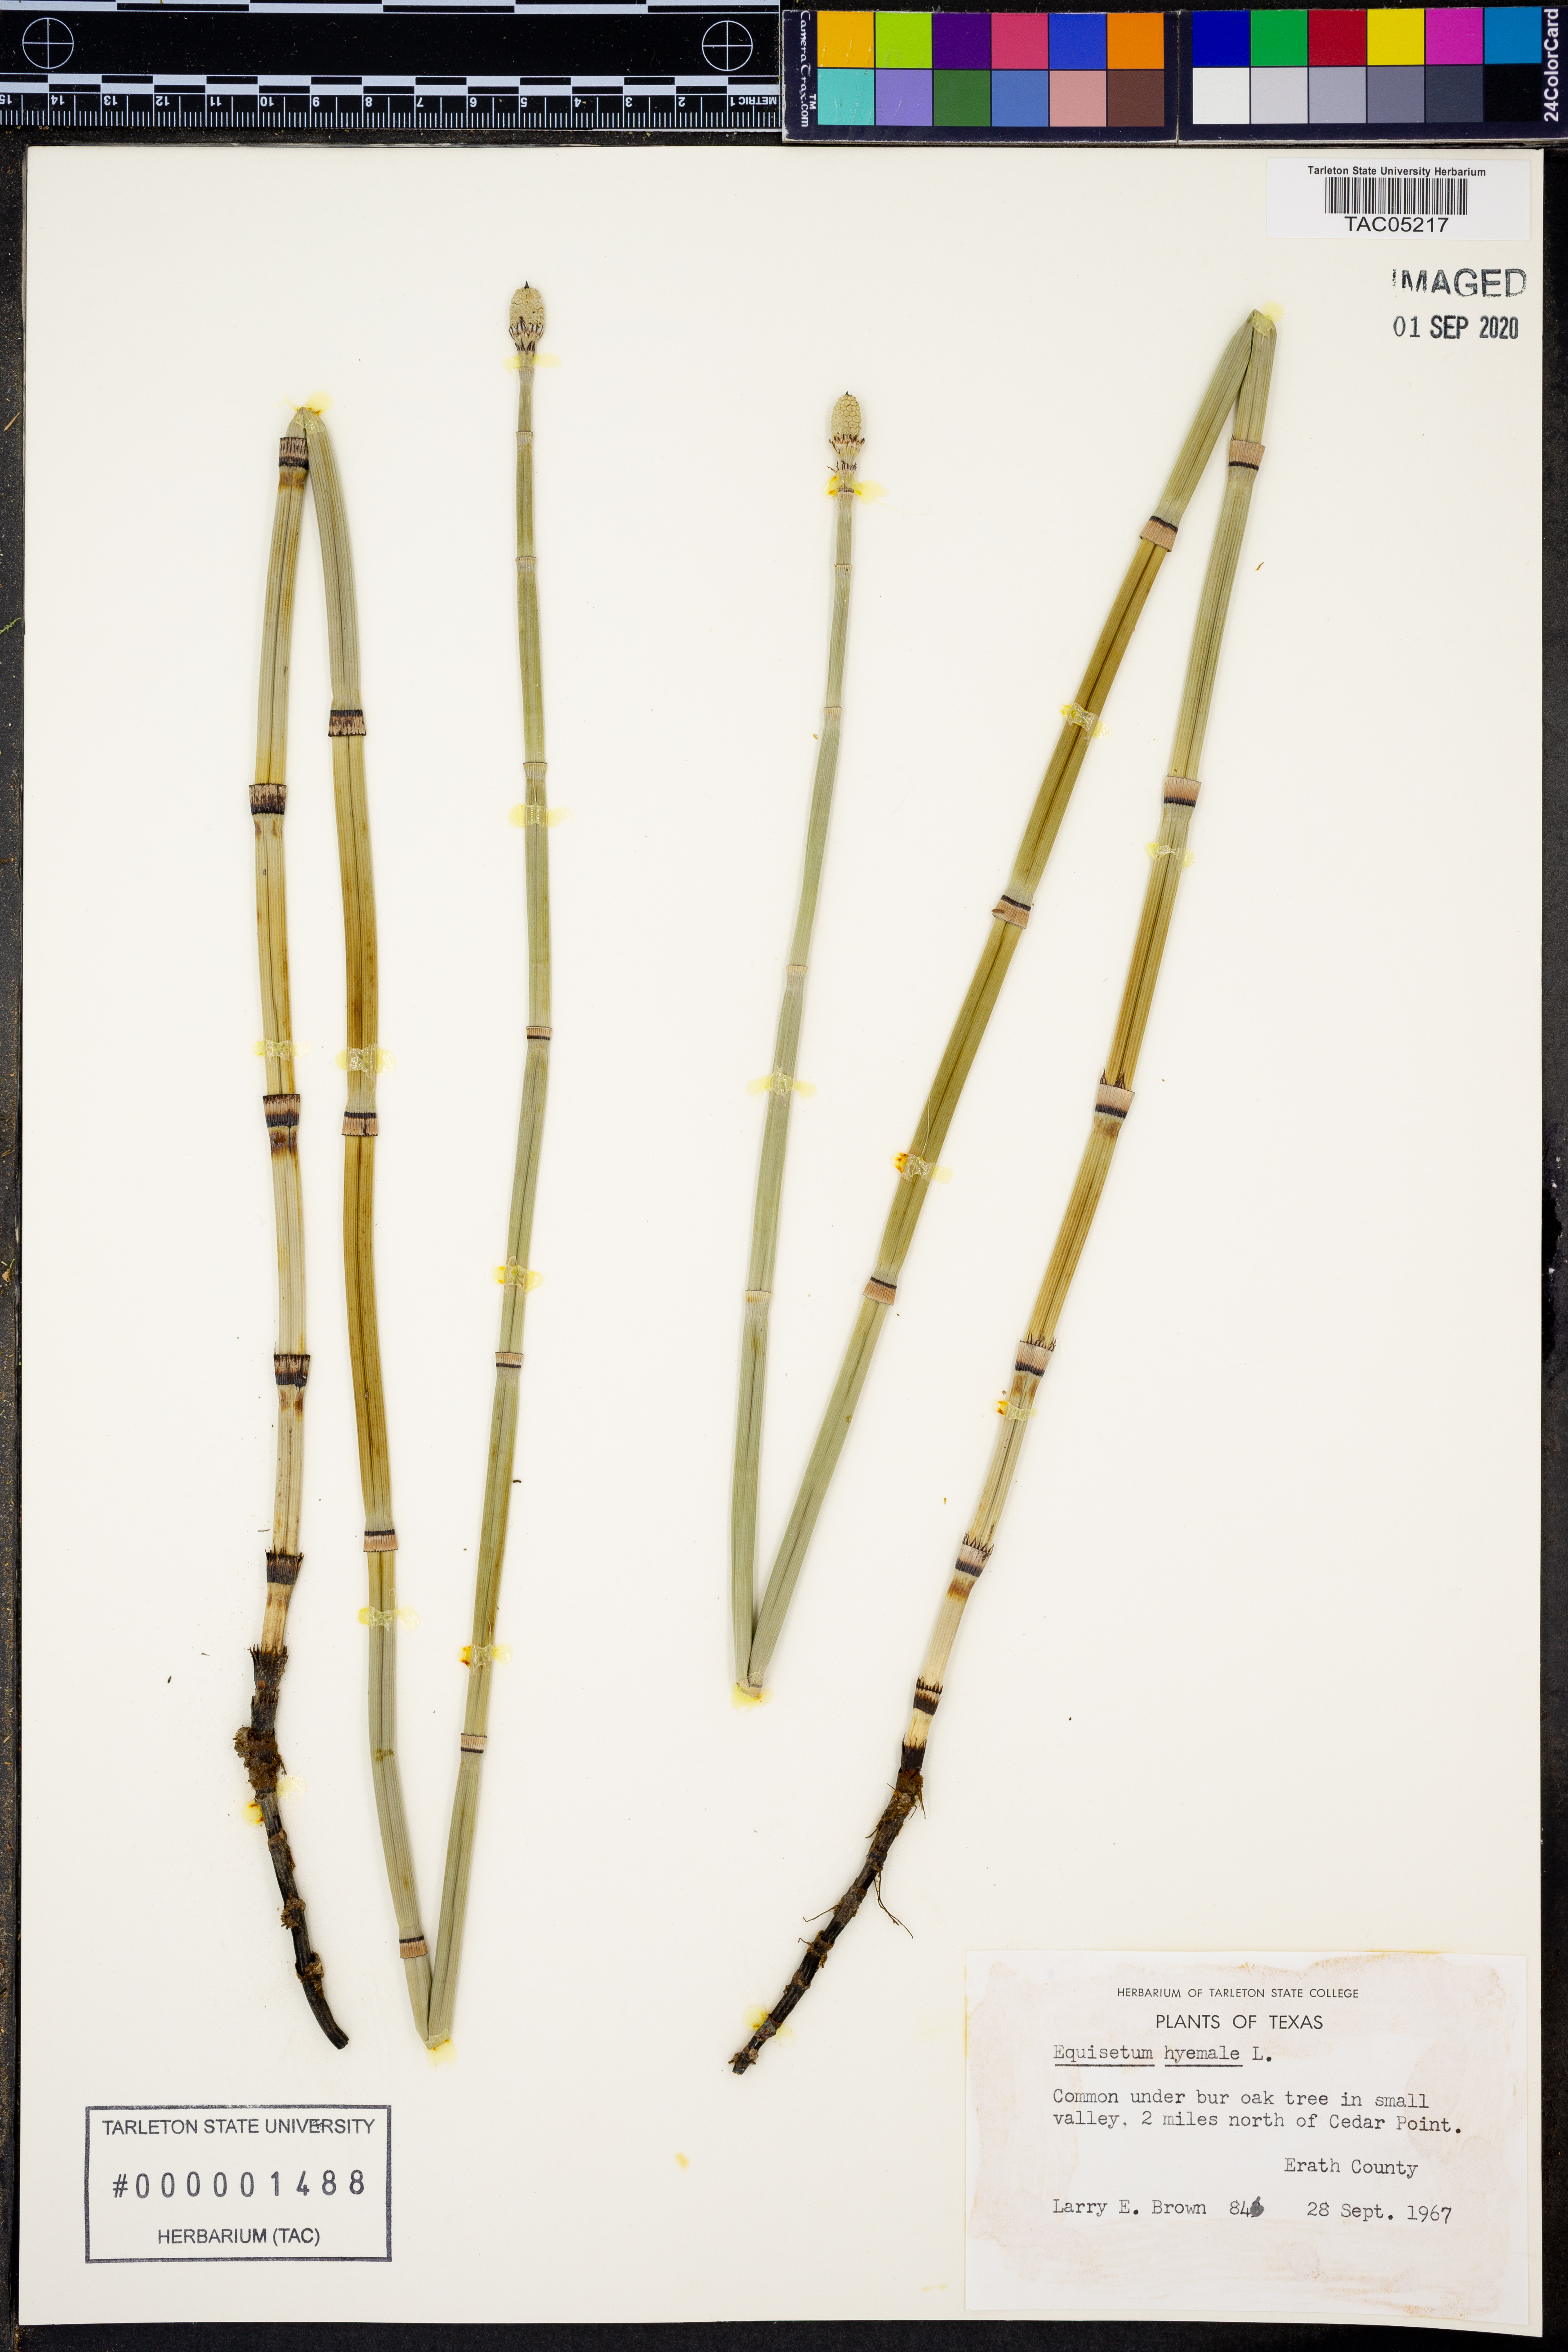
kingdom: Plantae
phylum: Tracheophyta
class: Polypodiopsida
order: Equisetales
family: Equisetaceae
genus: Equisetum
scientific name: Equisetum hyemale
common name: Rough horsetail
